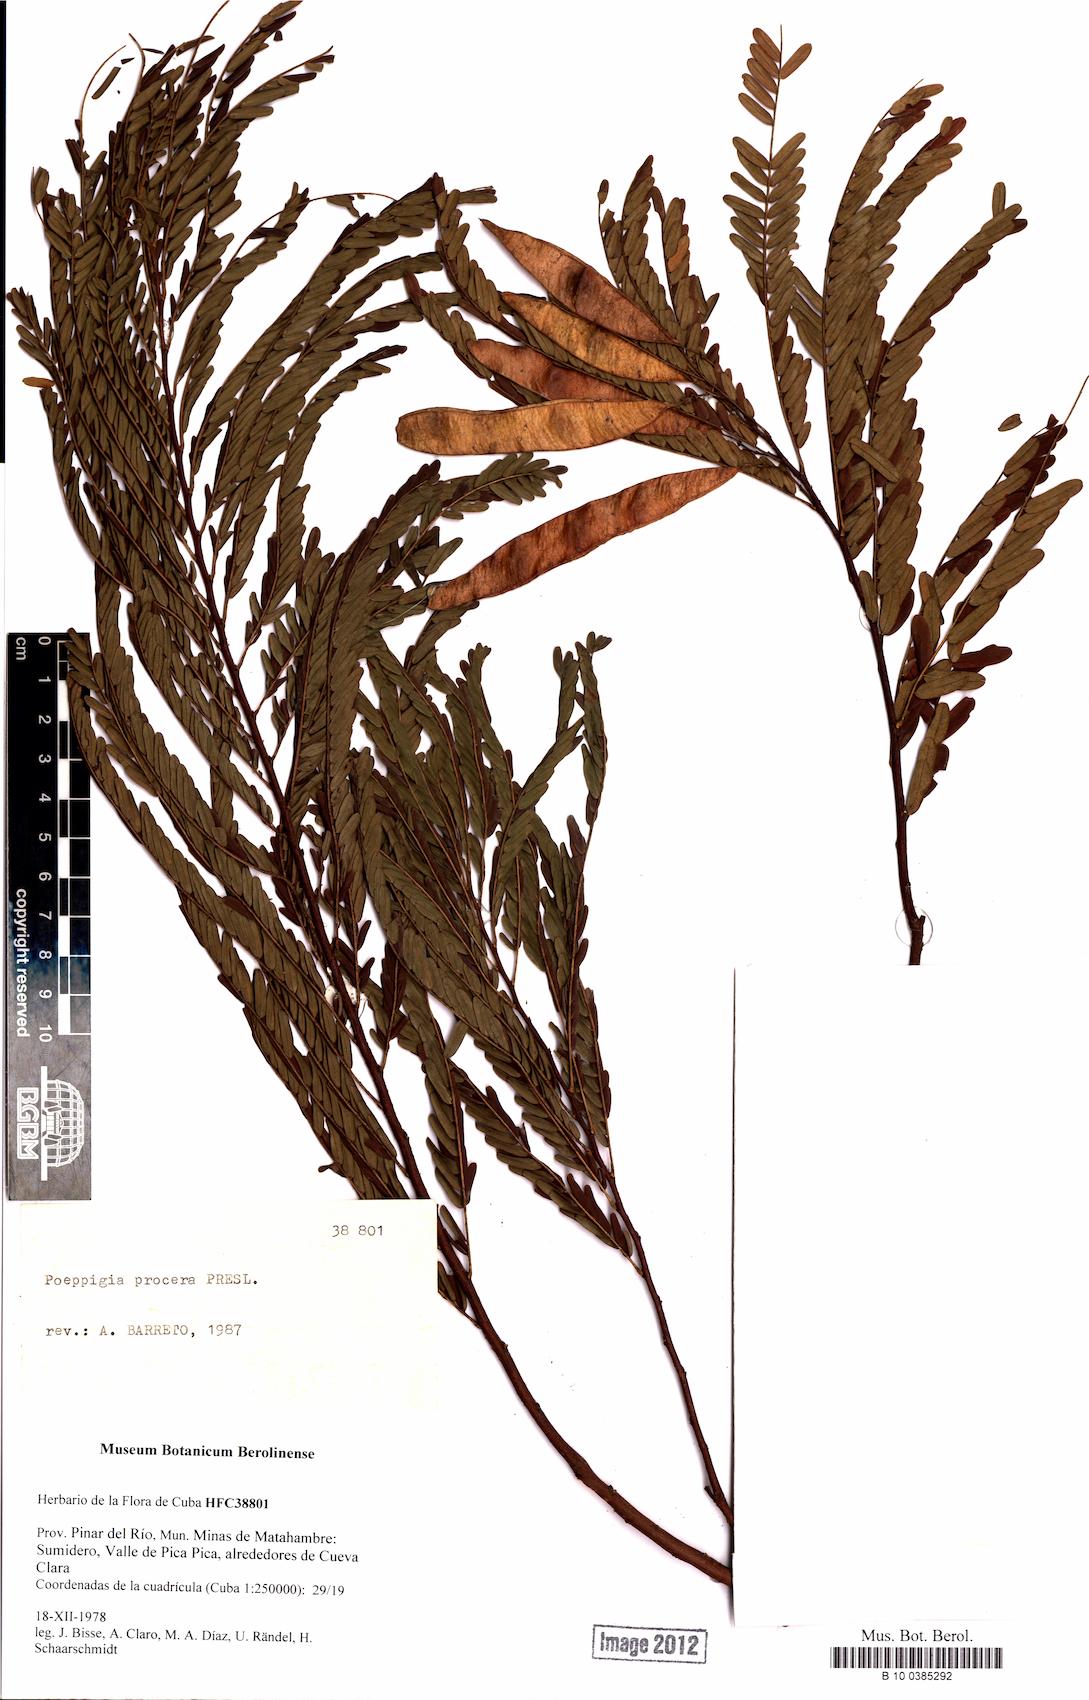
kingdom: Plantae
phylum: Tracheophyta
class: Magnoliopsida
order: Fabales
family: Fabaceae
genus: Poeppigia
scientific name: Poeppigia procera
